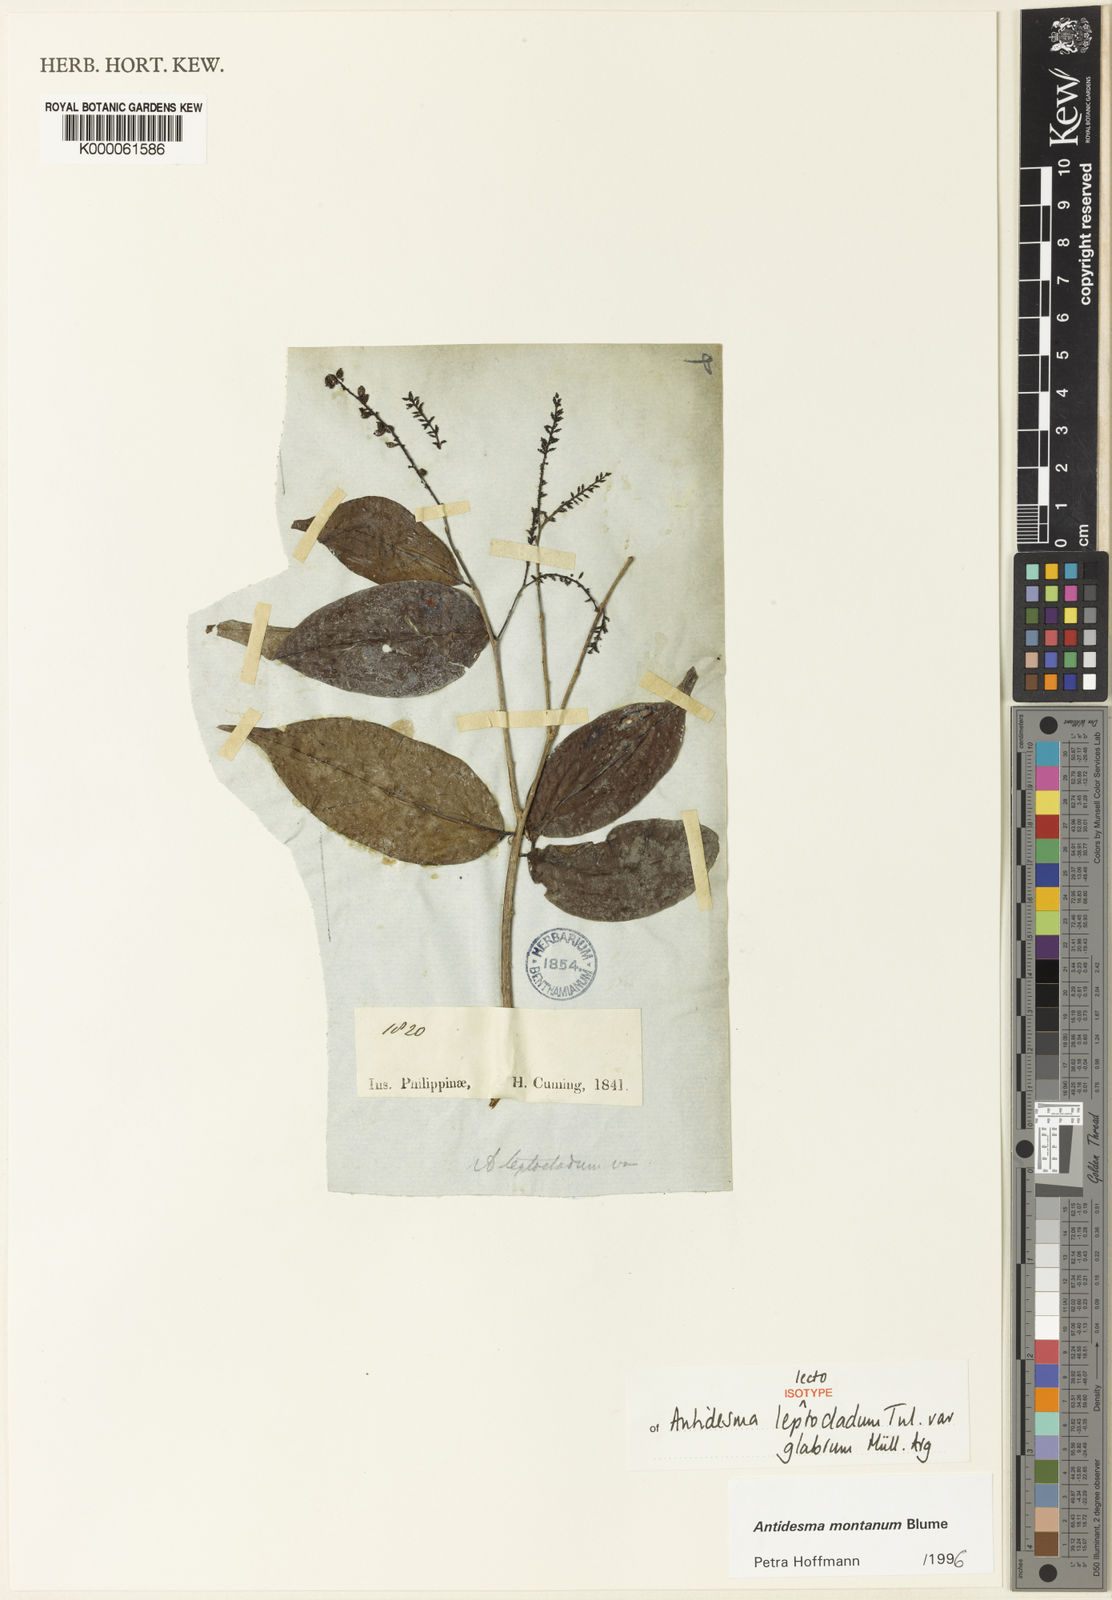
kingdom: Plantae
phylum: Tracheophyta
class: Magnoliopsida
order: Malpighiales
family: Phyllanthaceae
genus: Antidesma
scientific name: Antidesma montanum
